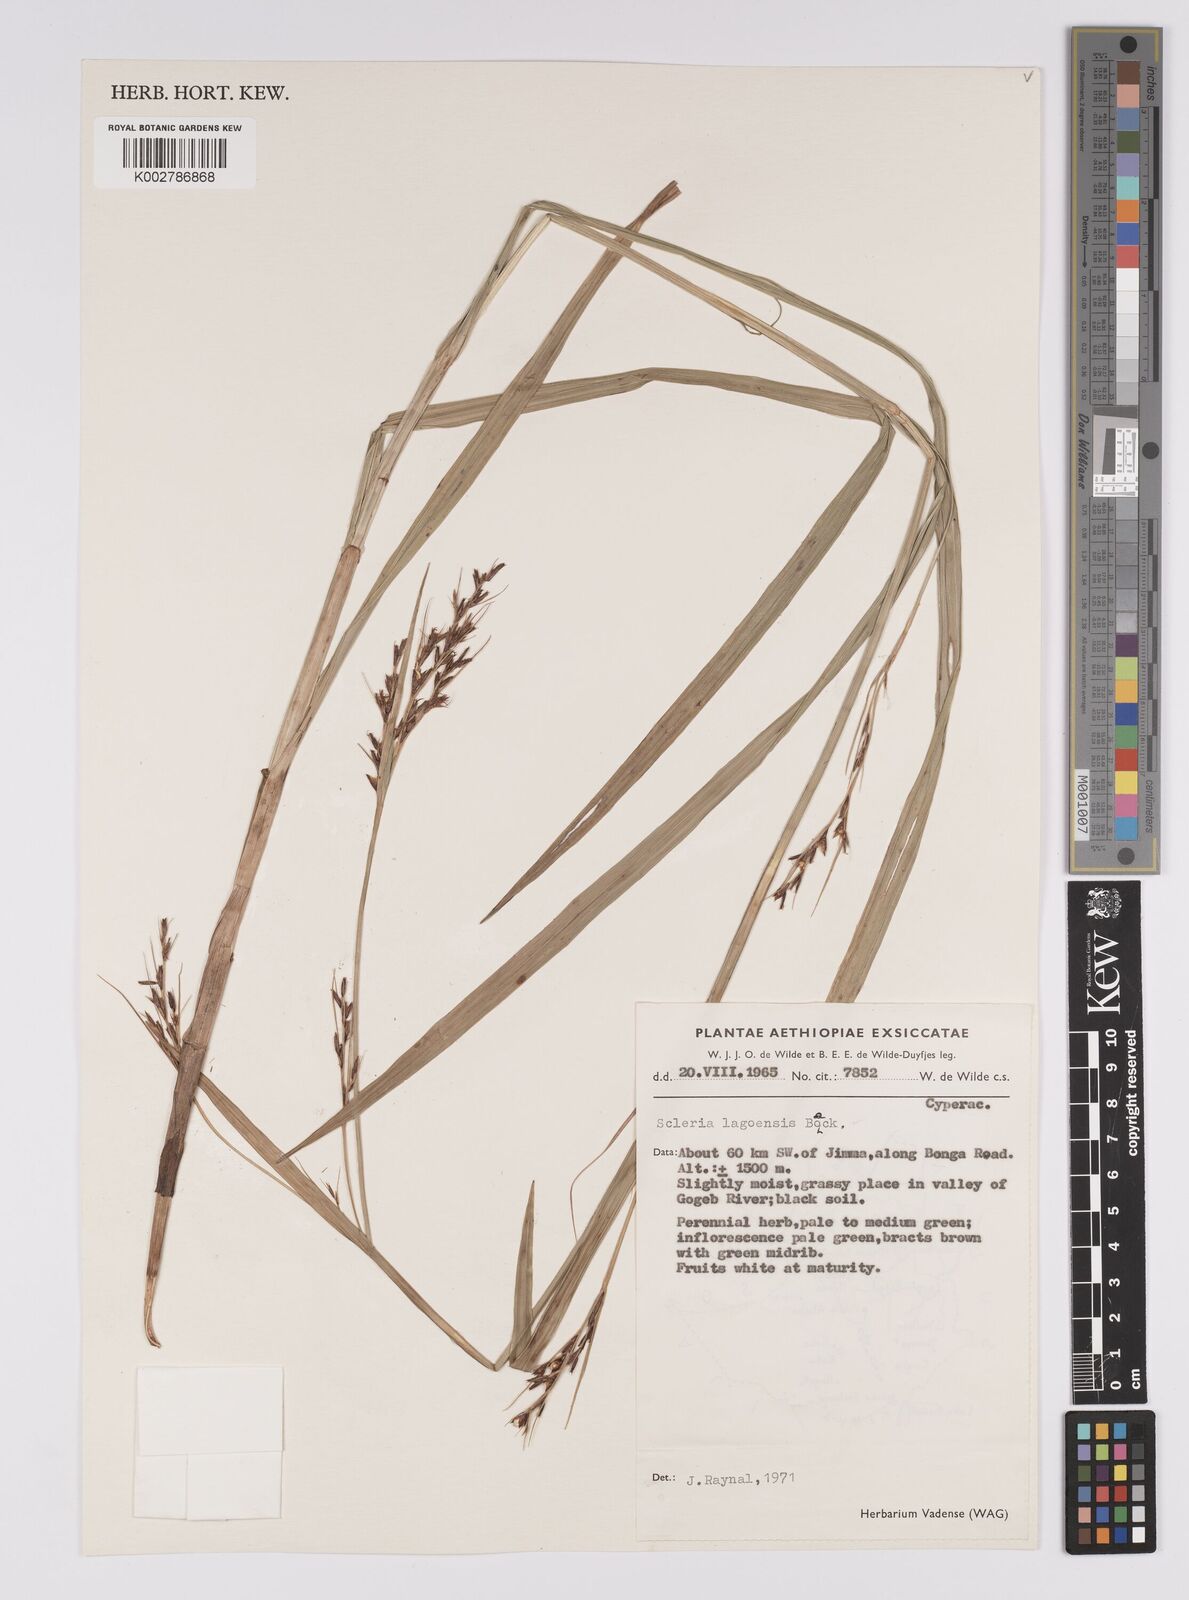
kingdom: Plantae
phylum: Tracheophyta
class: Liliopsida
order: Poales
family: Cyperaceae
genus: Scleria
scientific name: Scleria lagoensis
